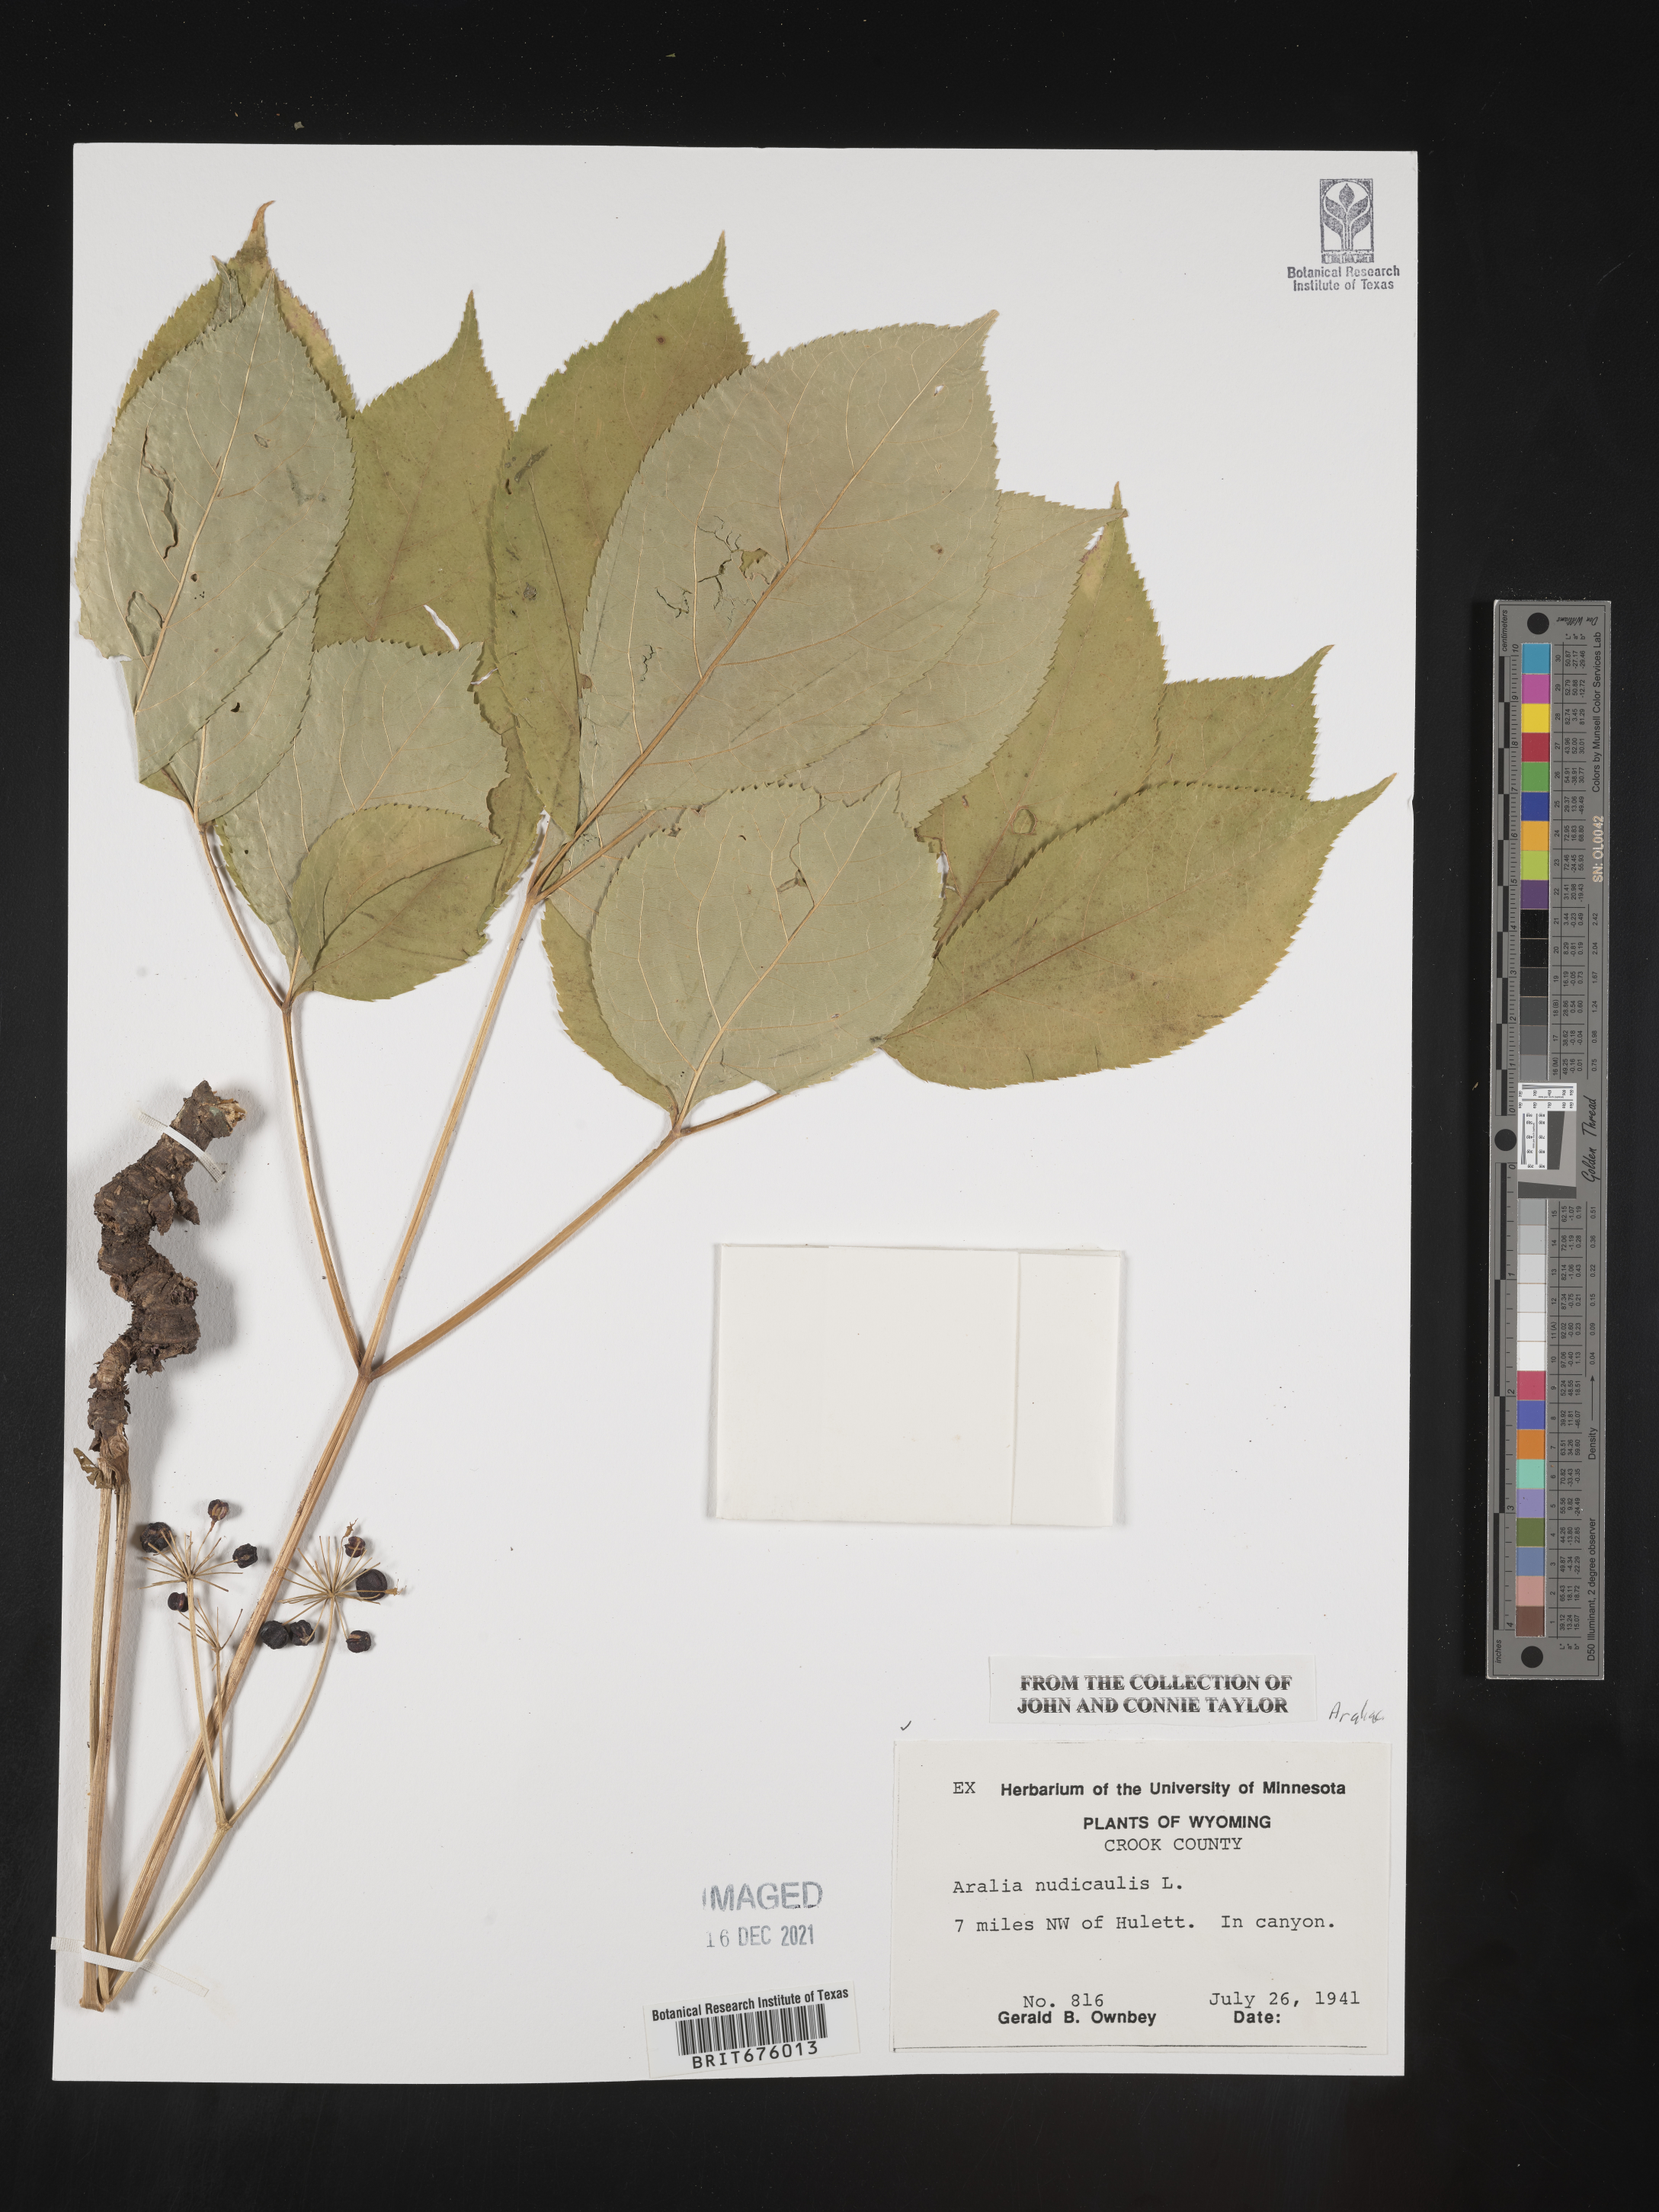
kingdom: Plantae
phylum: Tracheophyta
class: Magnoliopsida
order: Apiales
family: Araliaceae
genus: Aralia
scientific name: Aralia nudicaulis
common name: Wild sarsaparilla
